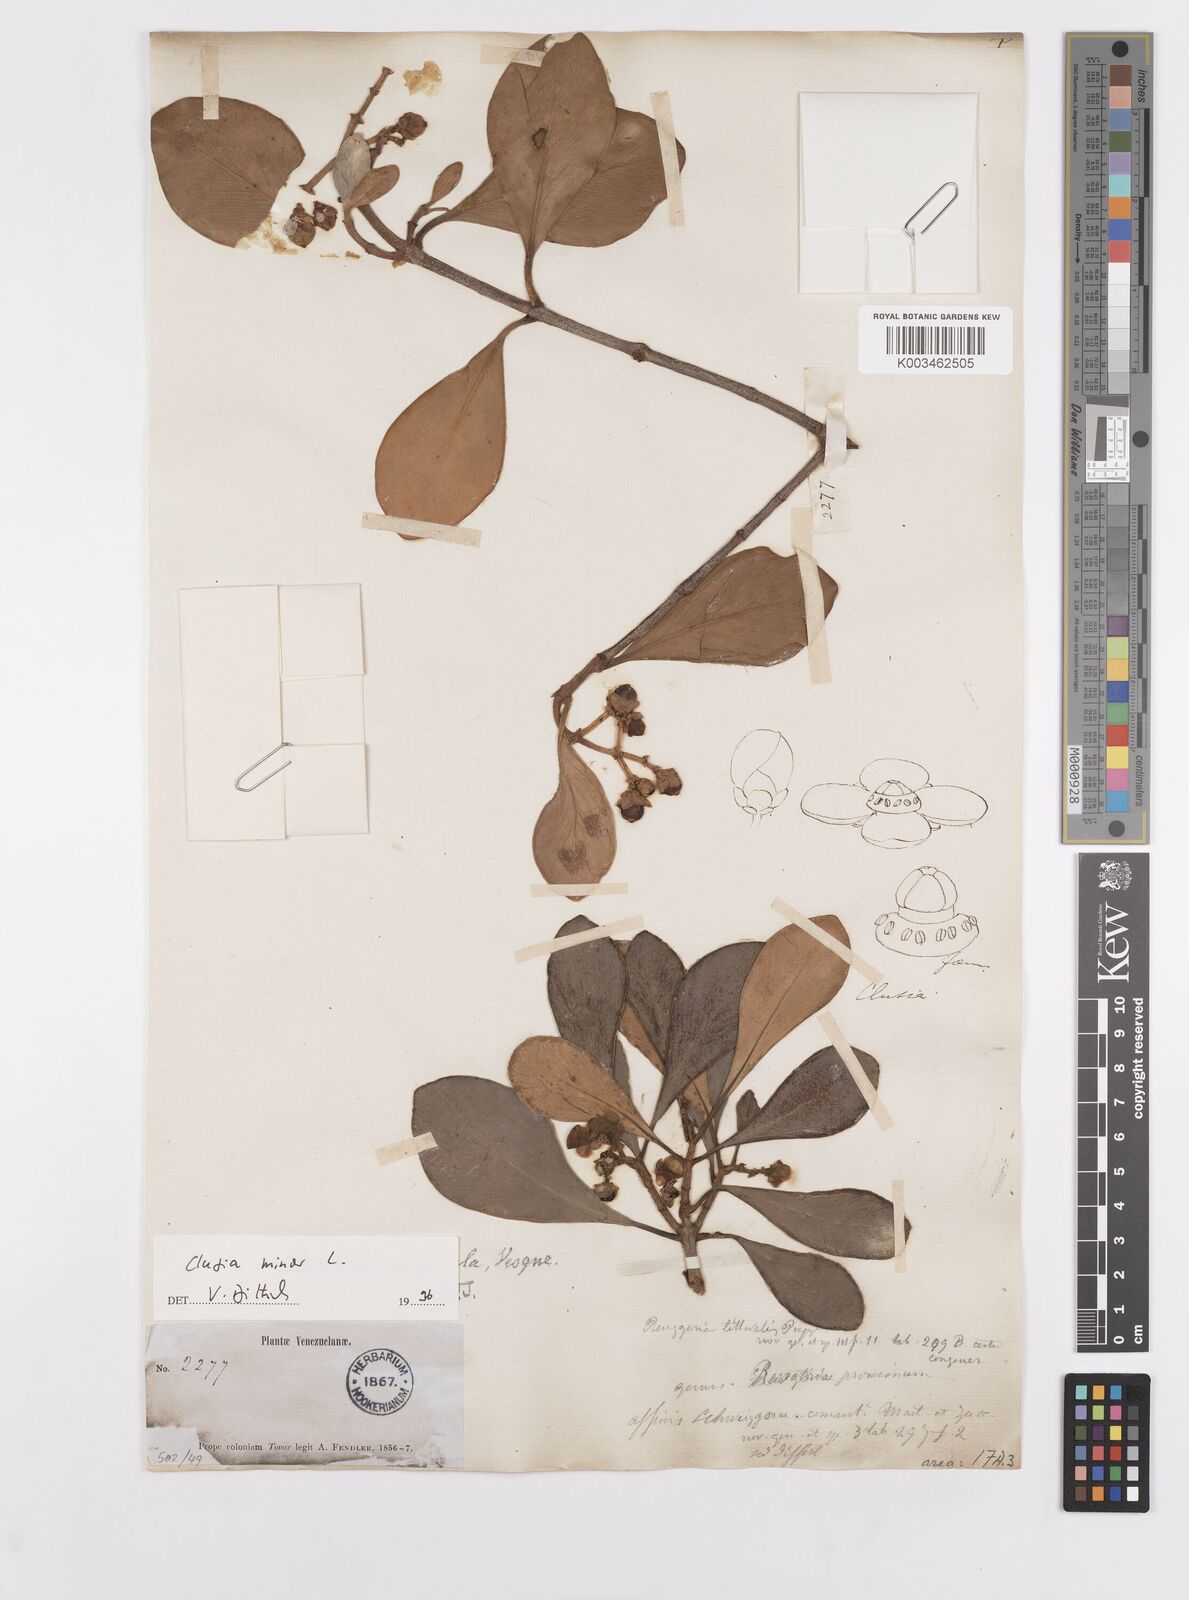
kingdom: Plantae
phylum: Tracheophyta
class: Magnoliopsida
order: Malpighiales
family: Clusiaceae
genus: Clusia
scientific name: Clusia minor
